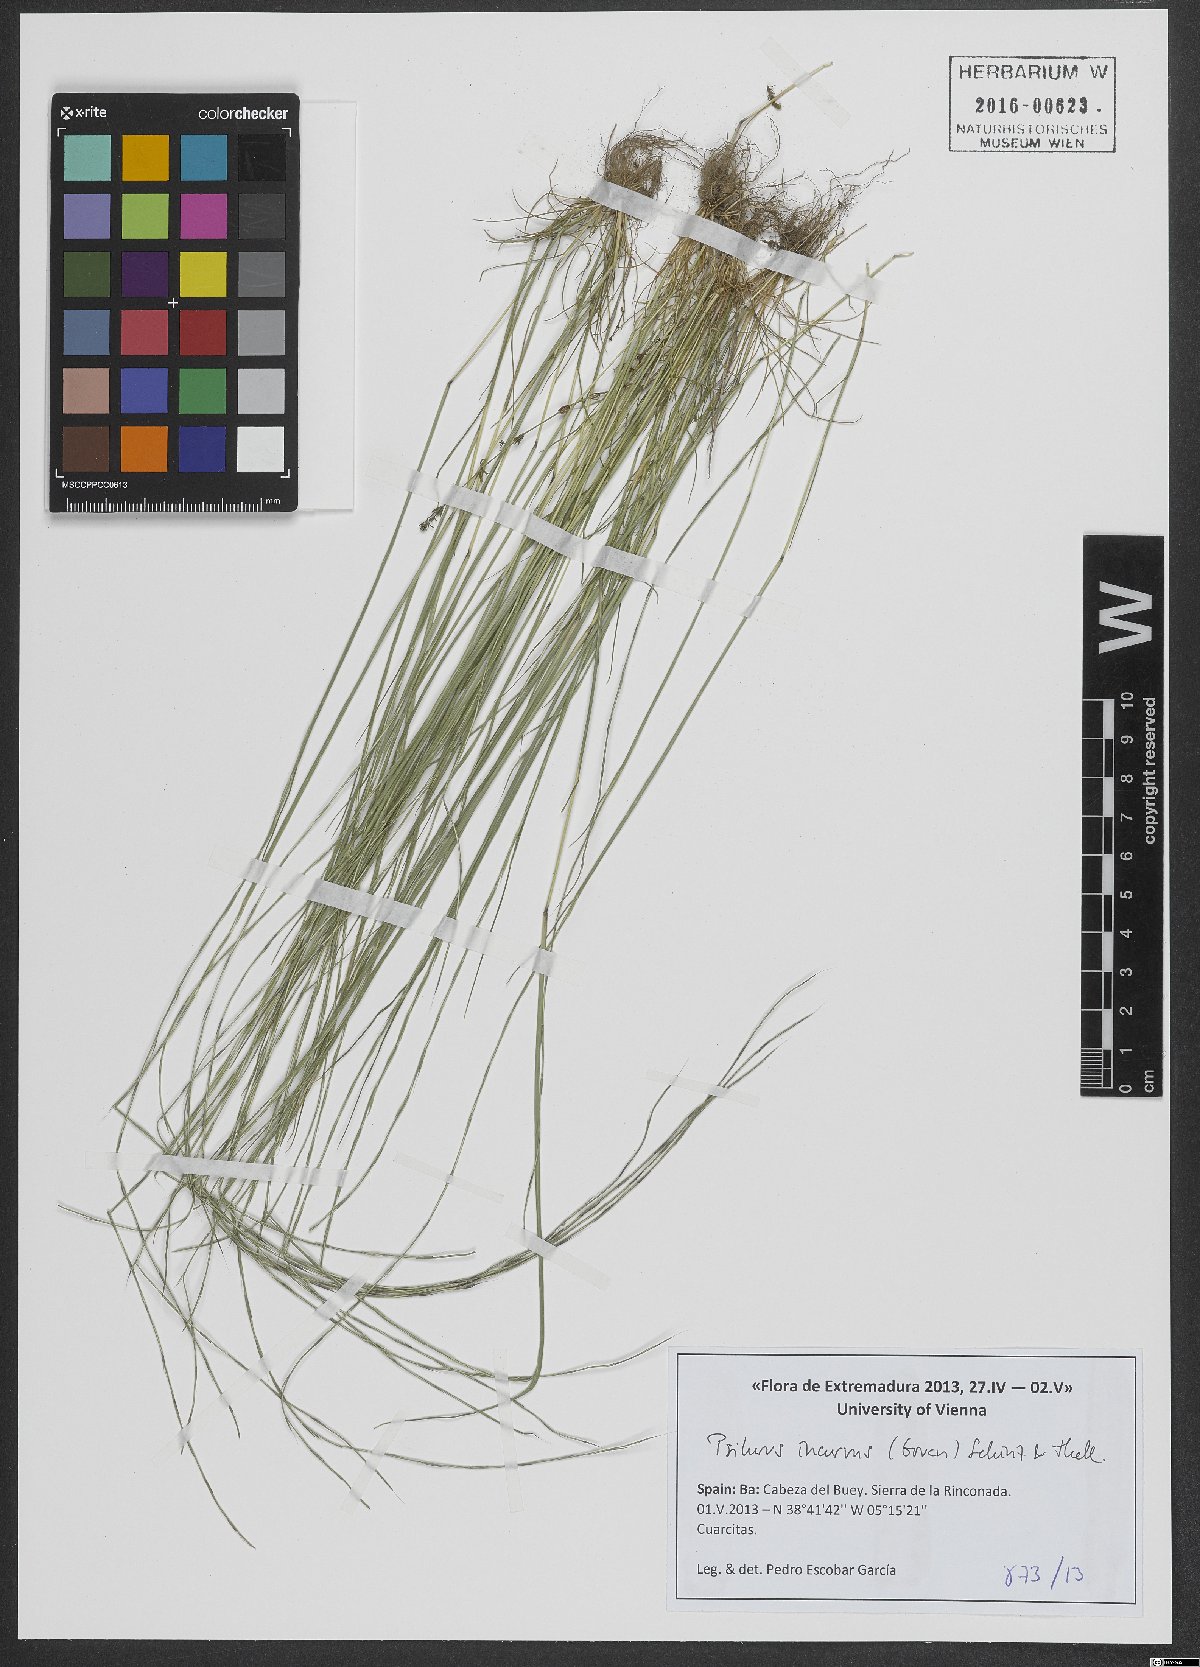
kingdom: Plantae
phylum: Tracheophyta
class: Liliopsida
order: Poales
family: Poaceae
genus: Festuca
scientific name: Festuca incurva
